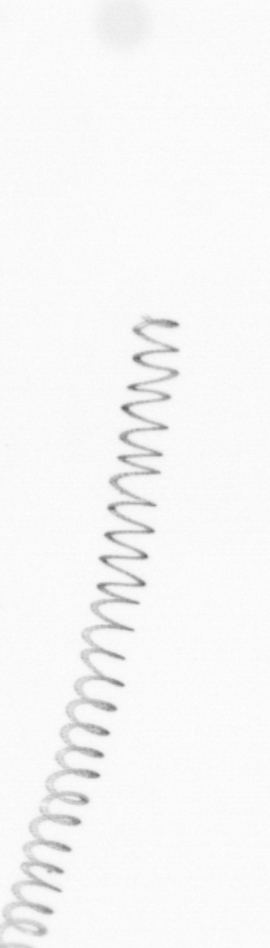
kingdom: Chromista
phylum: Ochrophyta
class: Bacillariophyceae
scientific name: Bacillariophyceae
